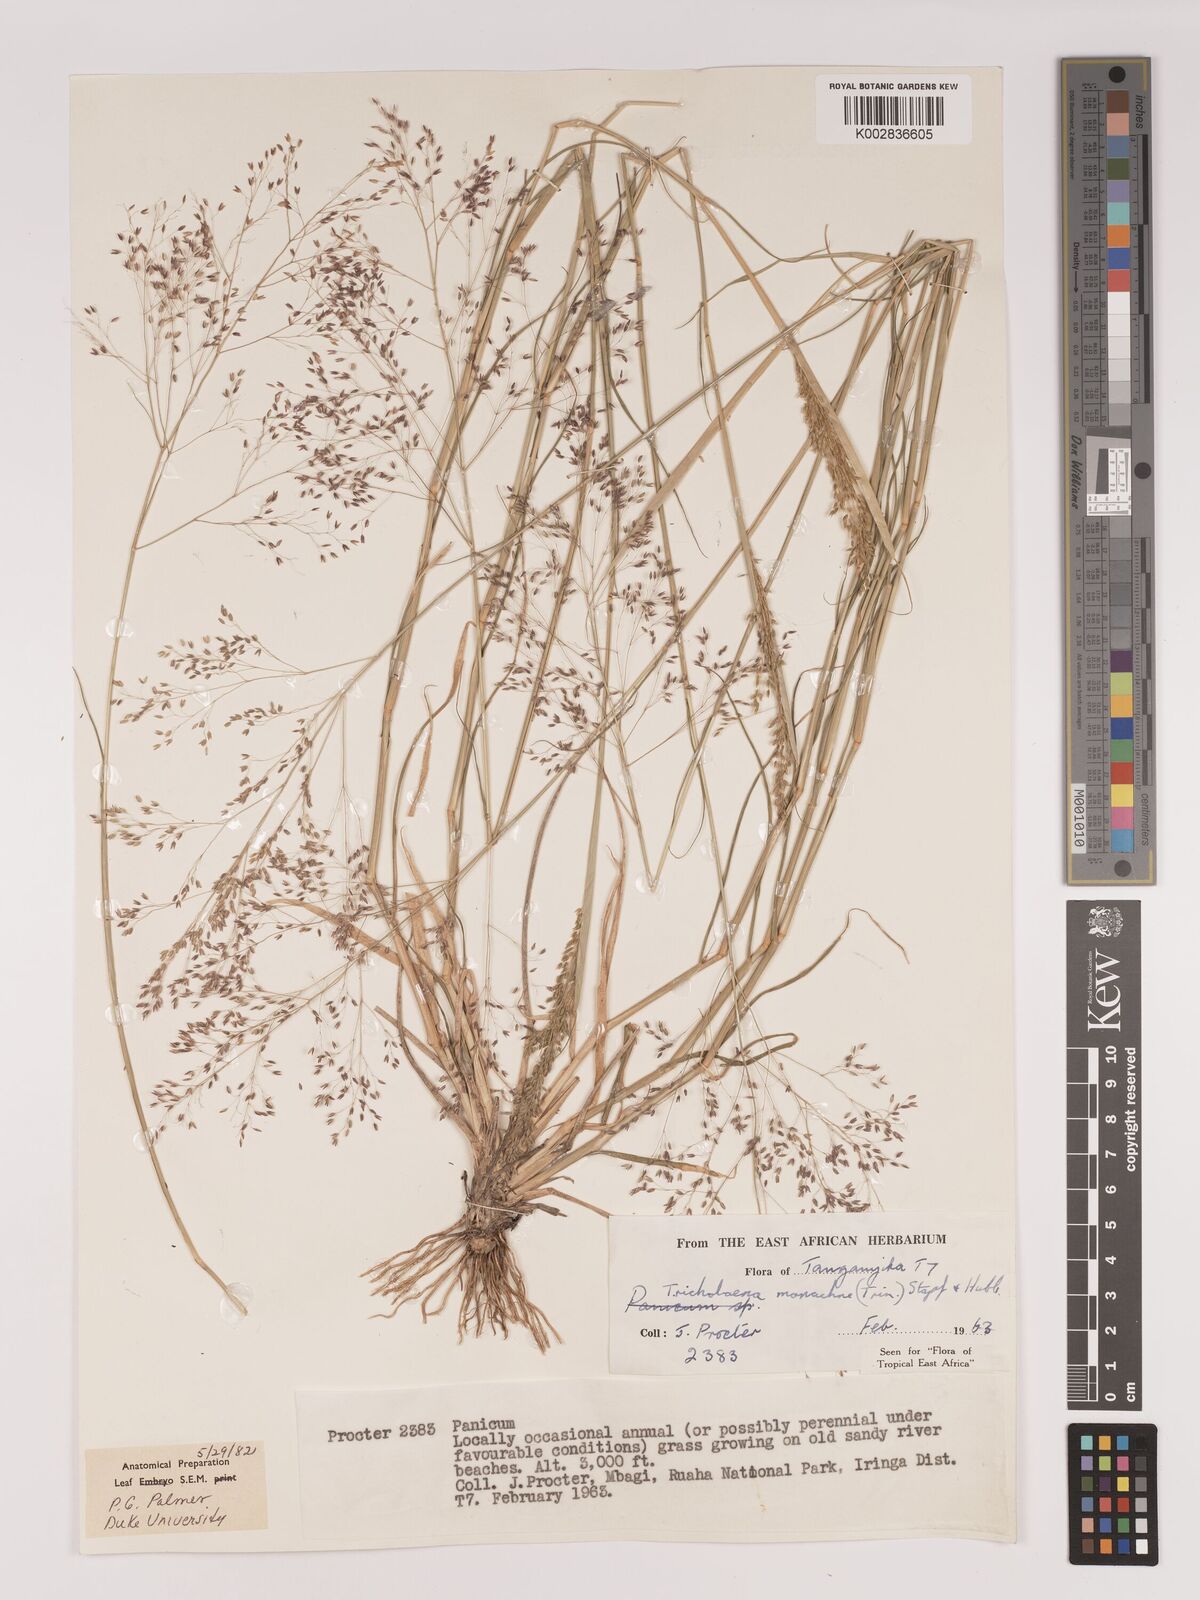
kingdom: Plantae
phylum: Tracheophyta
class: Liliopsida
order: Poales
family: Poaceae
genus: Tricholaena
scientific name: Tricholaena monachne
